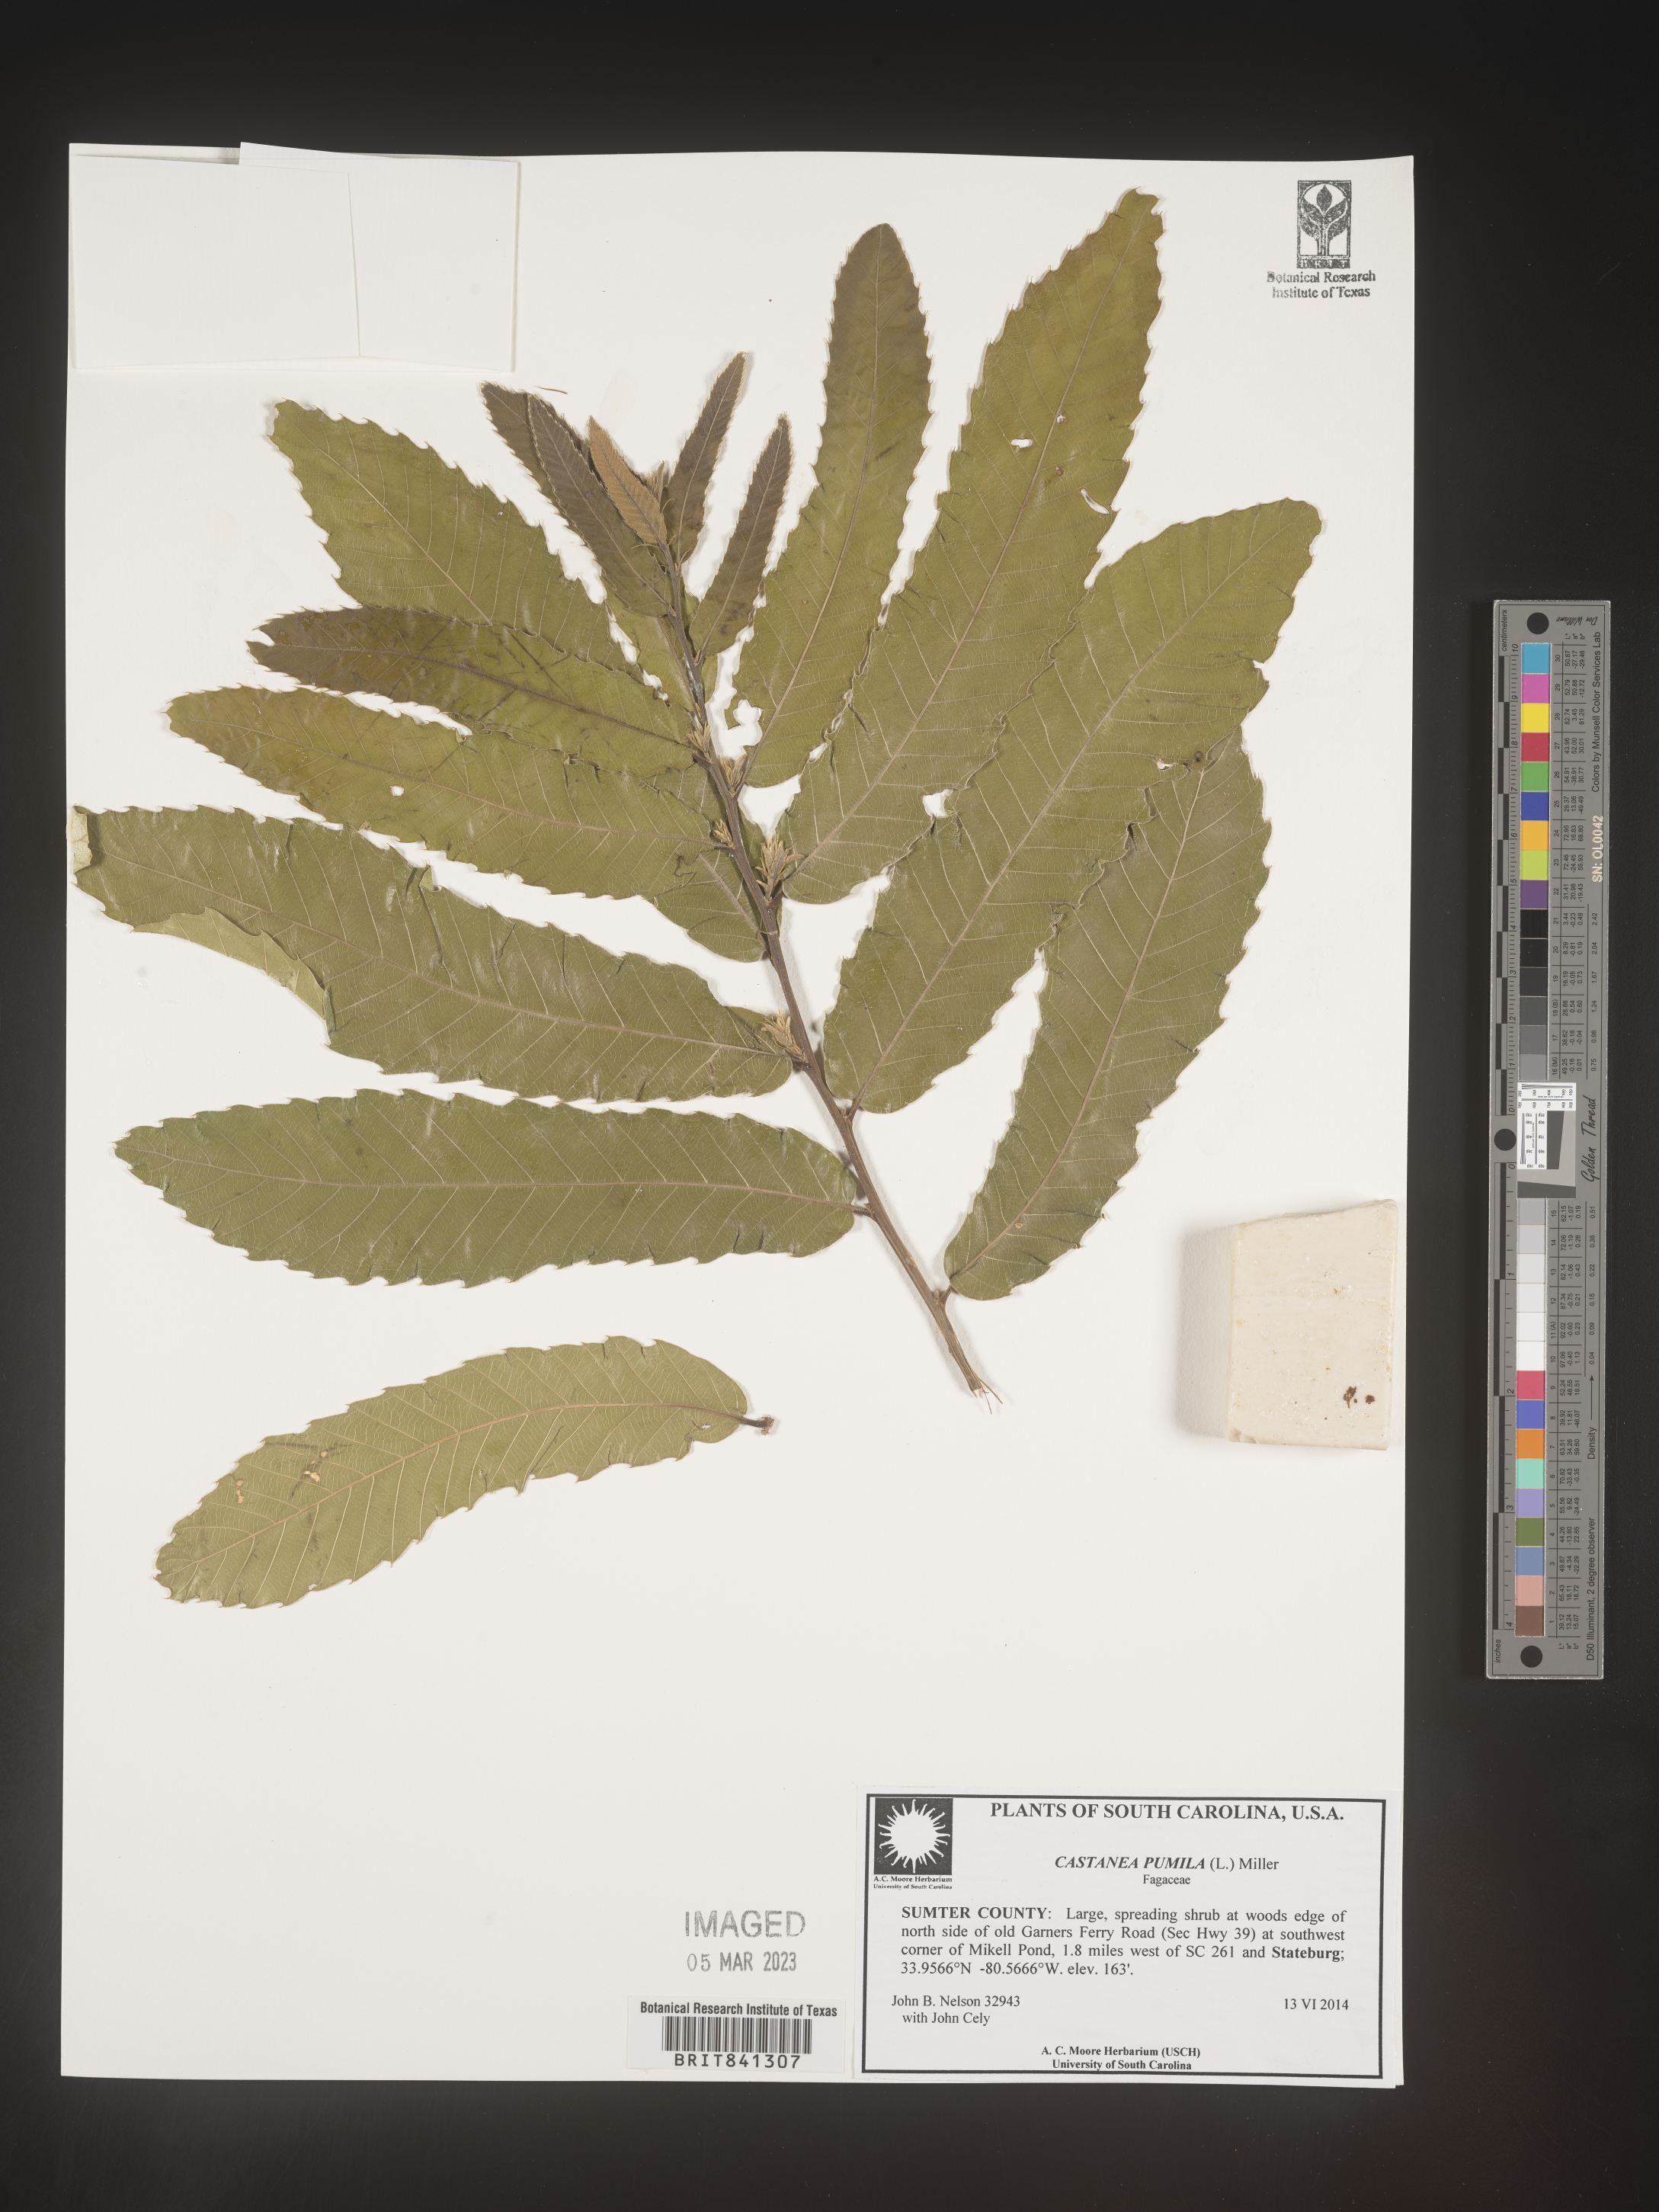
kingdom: Plantae
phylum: Tracheophyta
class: Magnoliopsida
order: Fagales
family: Fagaceae
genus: Castanea
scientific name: Castanea pumila
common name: Chinkapin
